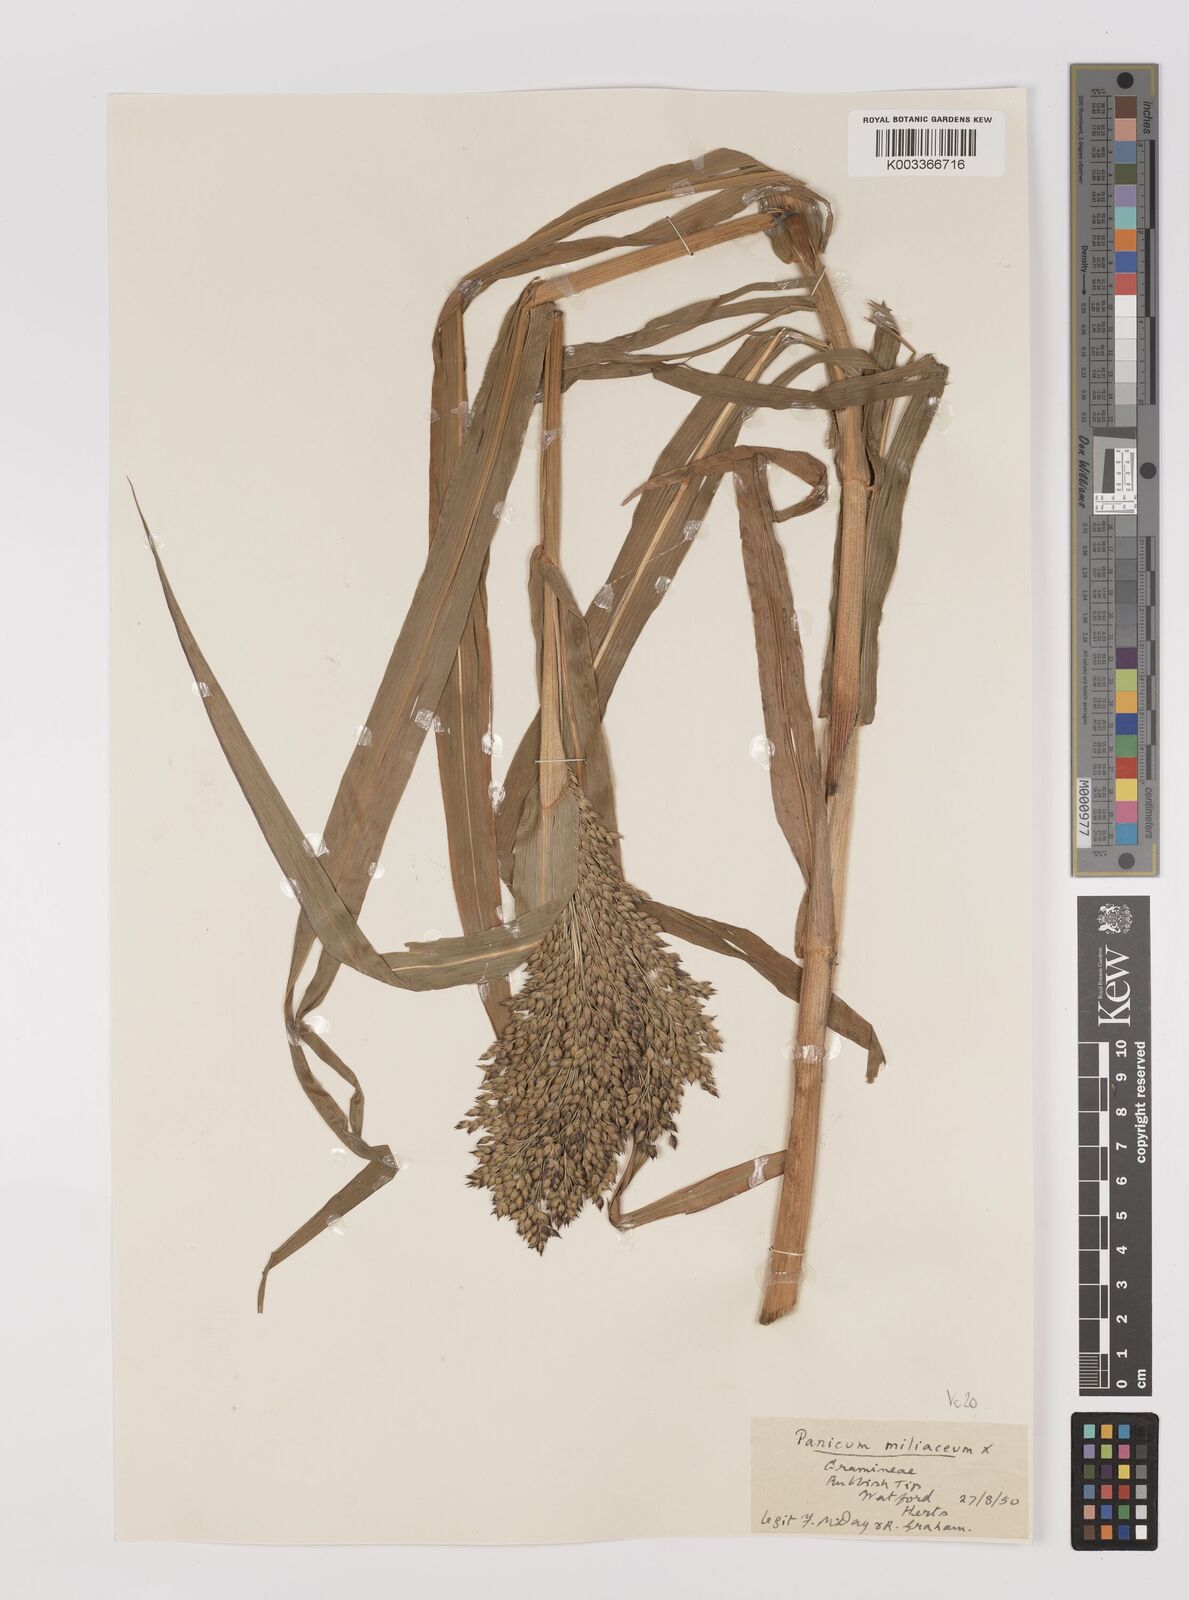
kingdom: Plantae
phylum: Tracheophyta
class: Liliopsida
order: Poales
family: Poaceae
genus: Panicum
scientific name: Panicum miliaceum
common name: Common millet
